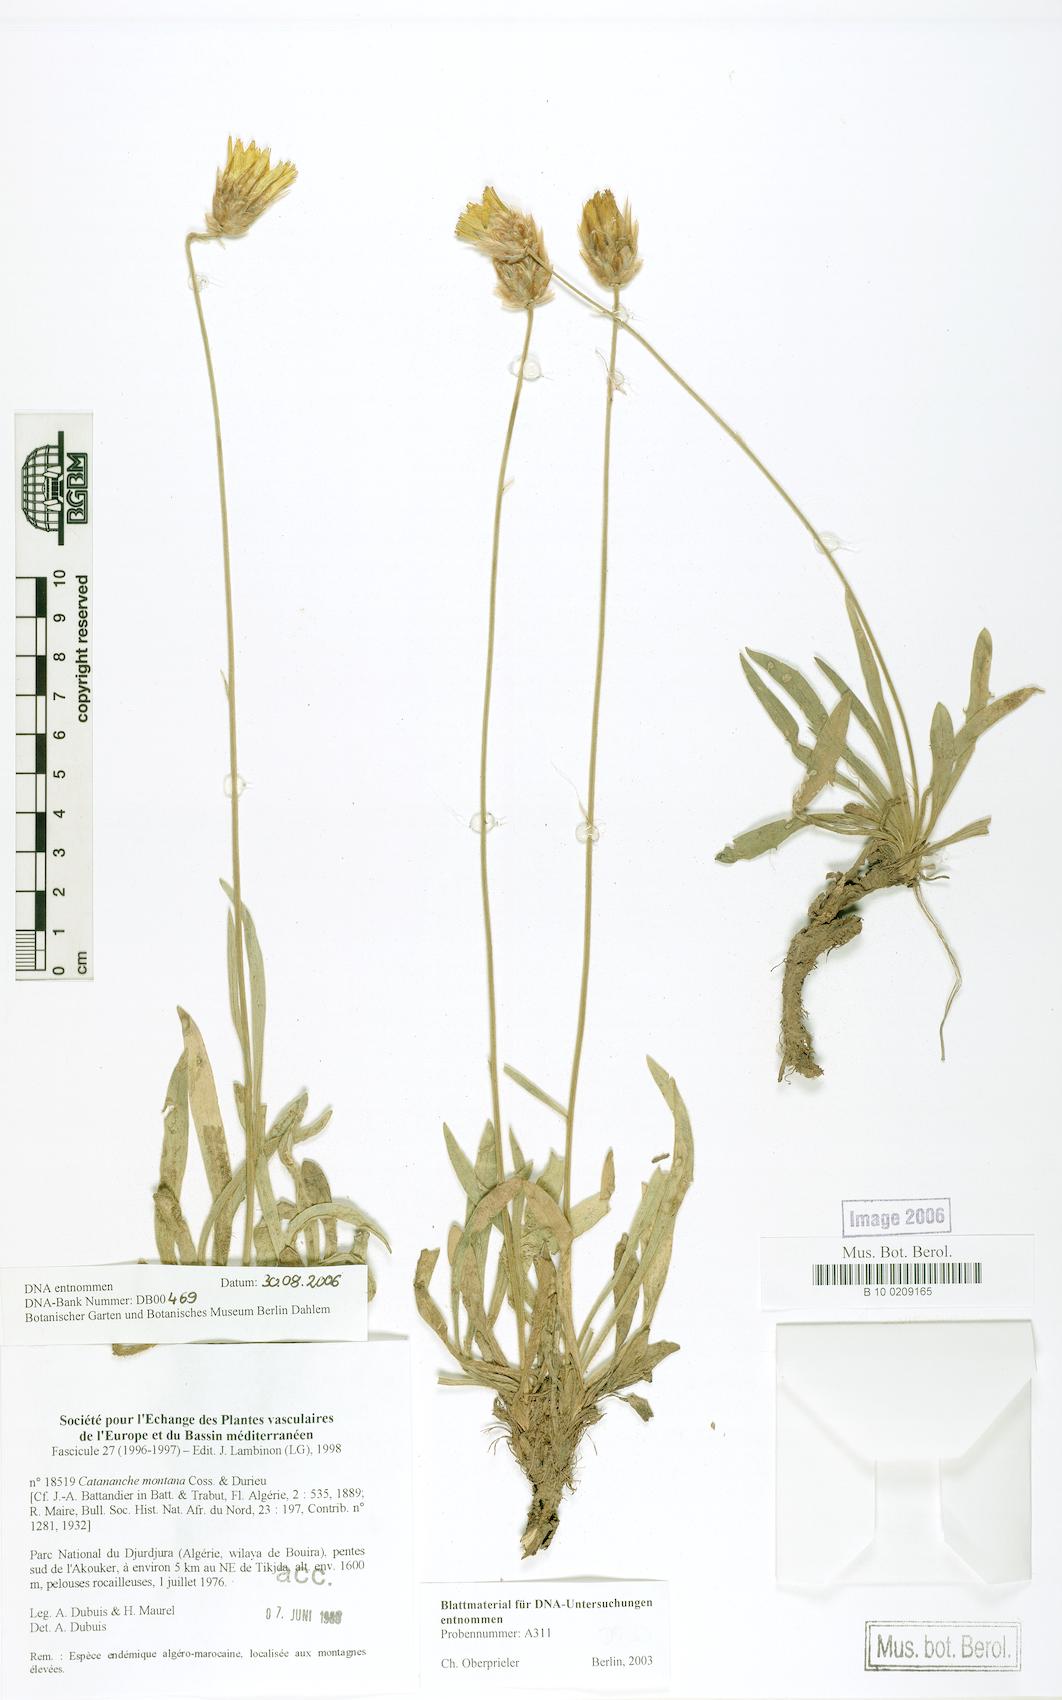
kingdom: Plantae
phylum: Tracheophyta
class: Magnoliopsida
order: Asterales
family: Asteraceae
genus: Catananche
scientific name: Catananche montana
